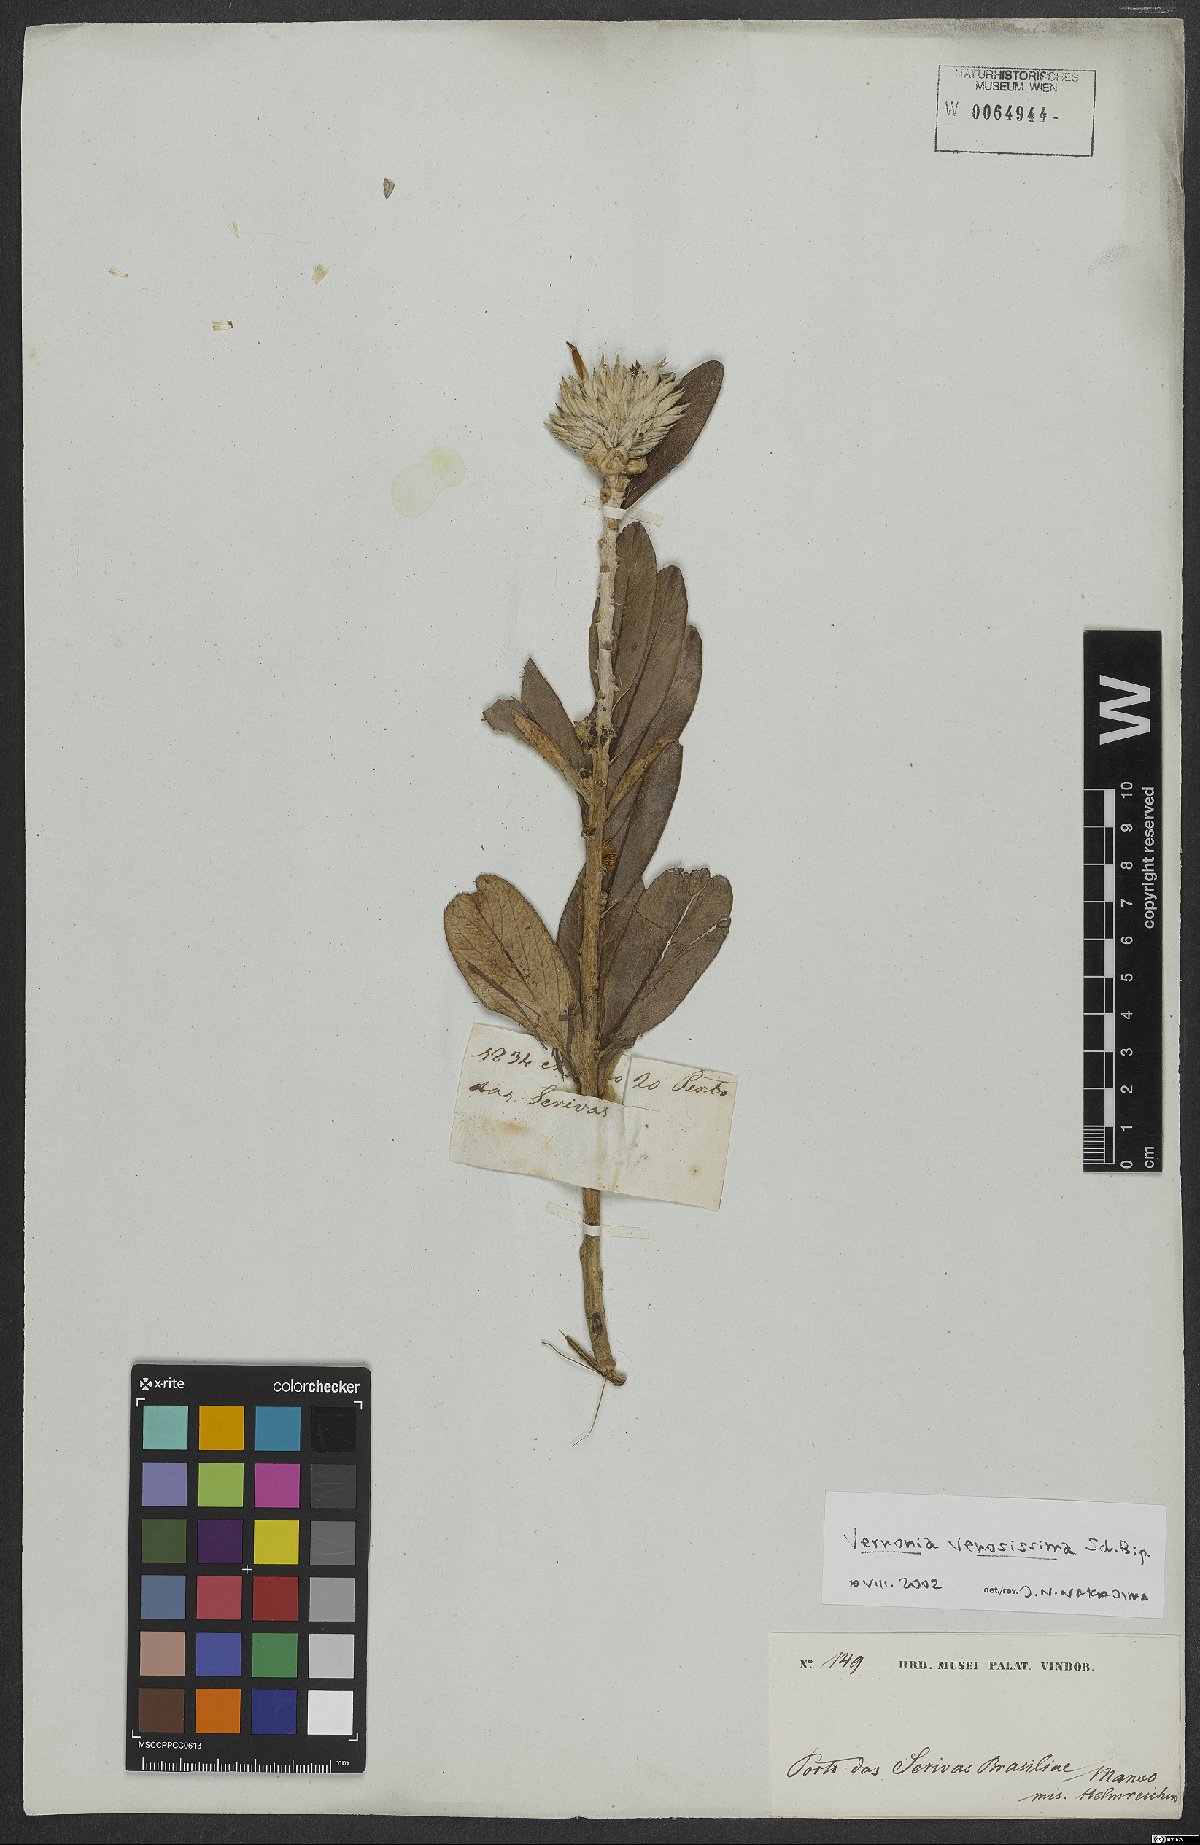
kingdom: Plantae
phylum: Tracheophyta
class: Magnoliopsida
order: Asterales
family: Asteraceae
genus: Lessingianthus
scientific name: Lessingianthus venosissimus
